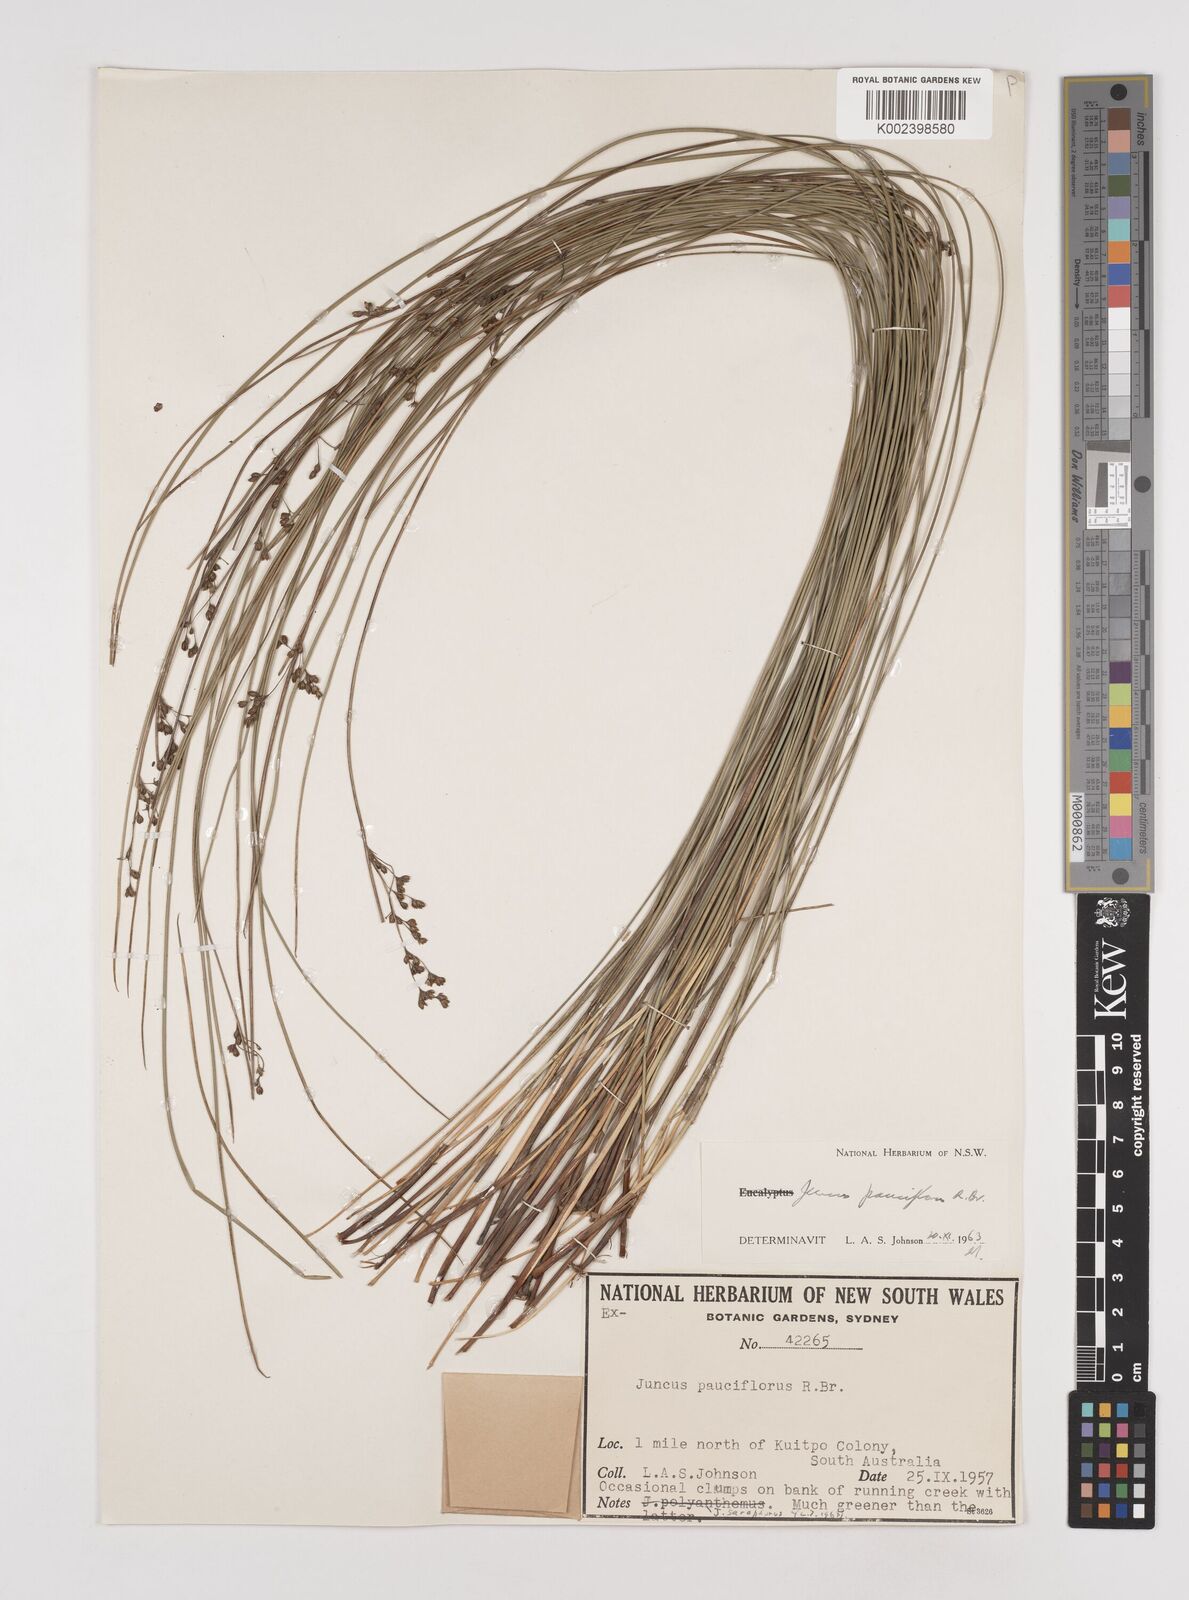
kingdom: Plantae
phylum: Tracheophyta
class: Liliopsida
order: Poales
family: Juncaceae
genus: Juncus
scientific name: Juncus pauciflorus
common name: Loose-flowered rush
